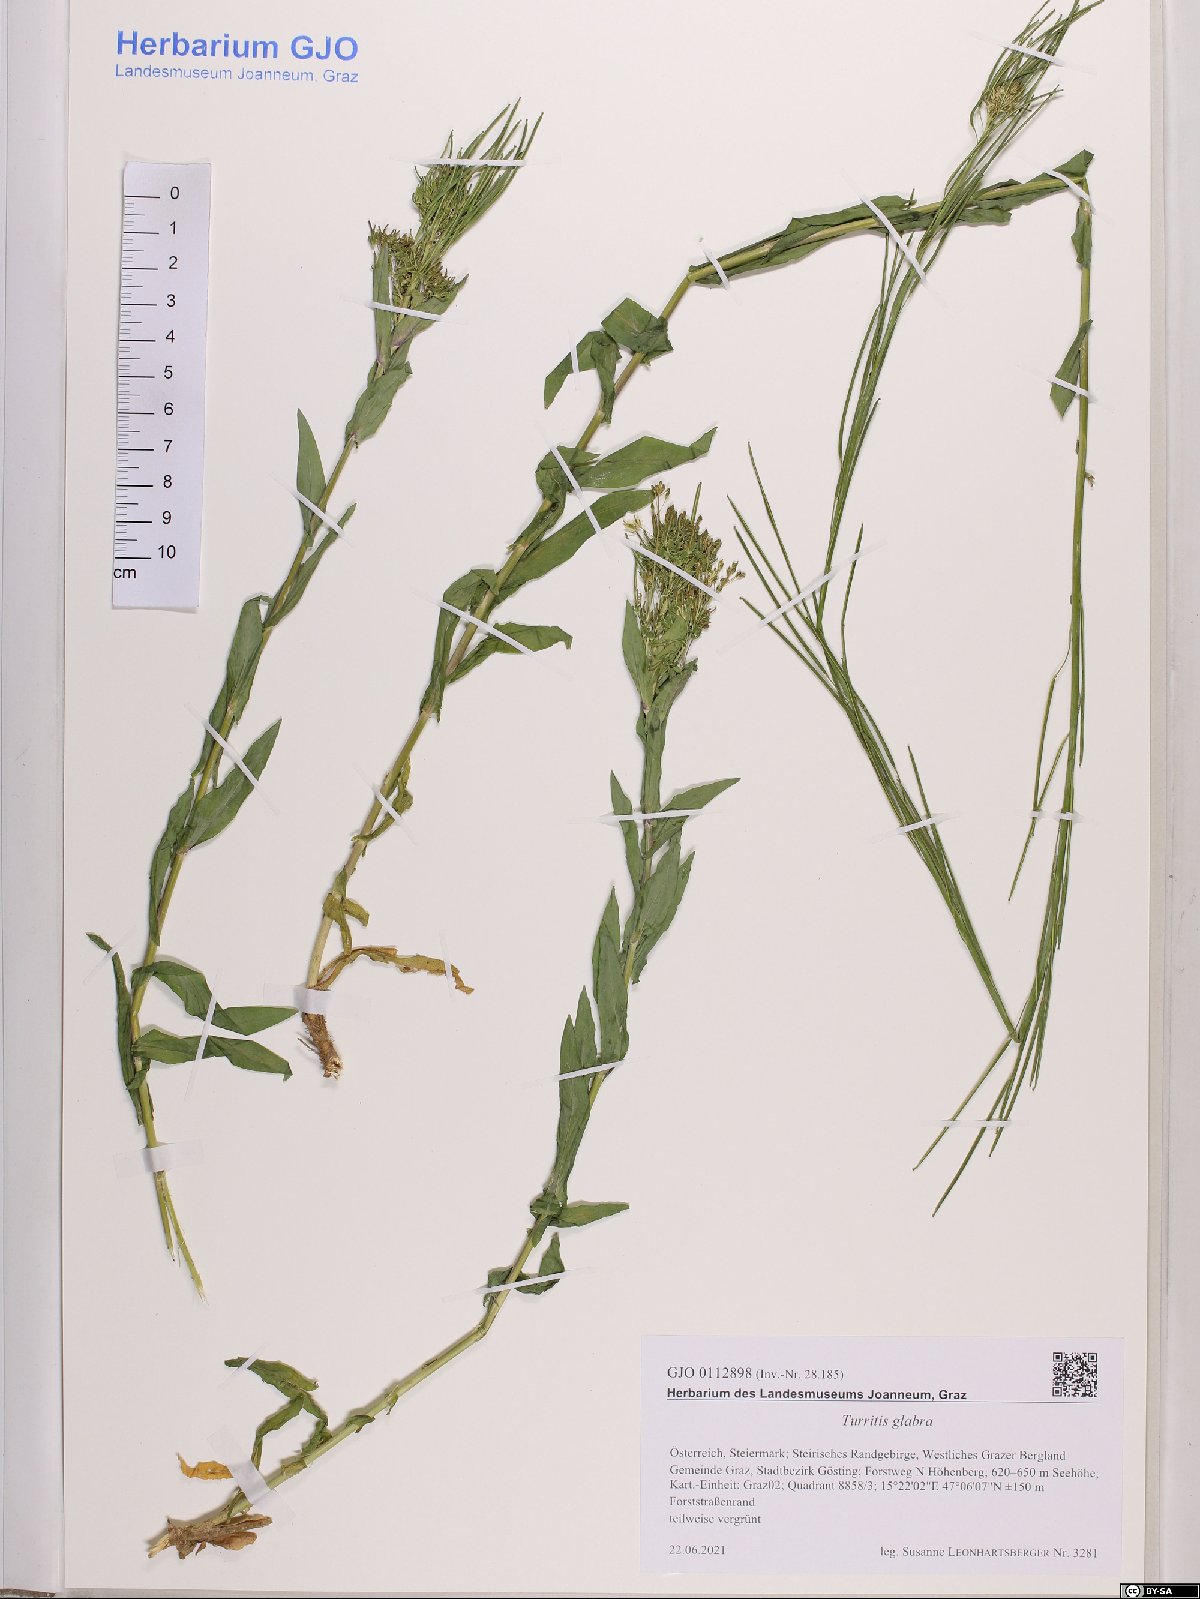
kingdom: Plantae
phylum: Tracheophyta
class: Magnoliopsida
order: Brassicales
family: Brassicaceae
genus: Turritis
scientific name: Turritis glabra
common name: Tower rockcress
